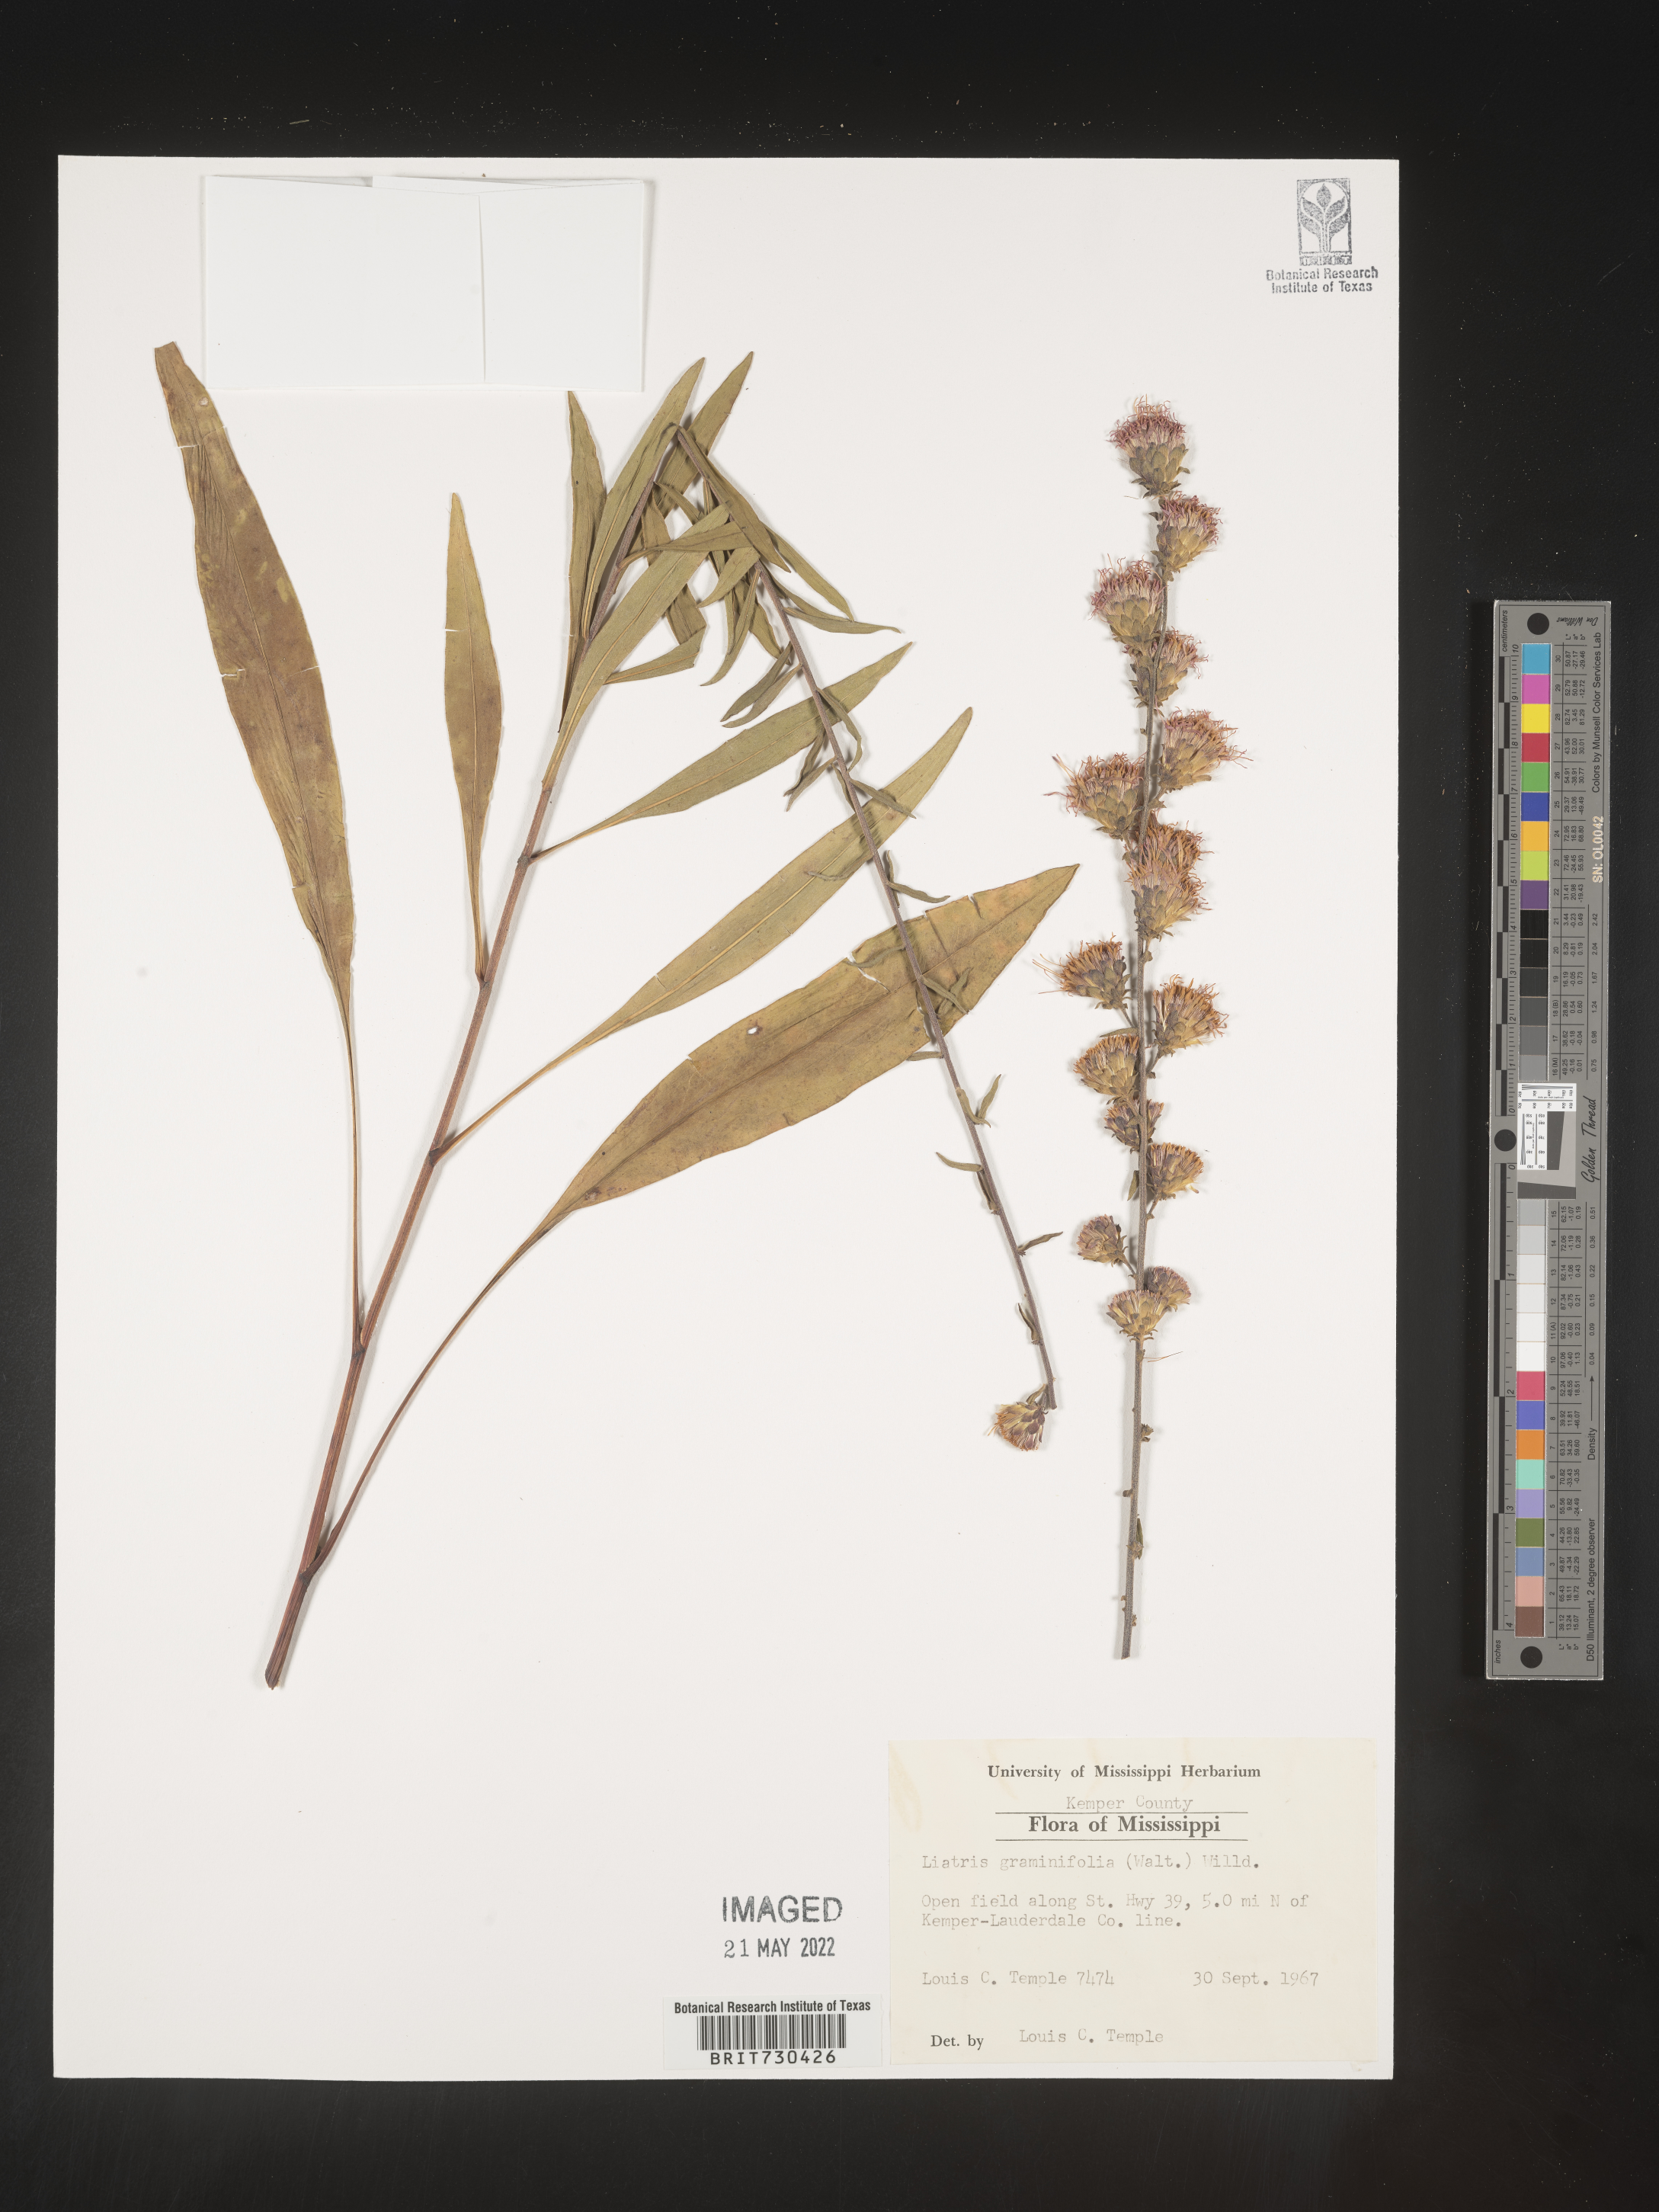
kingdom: Plantae
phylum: Tracheophyta
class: Magnoliopsida
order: Asterales
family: Asteraceae
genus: Liatris
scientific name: Liatris pilosa
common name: Grass-leaf gayfeather
